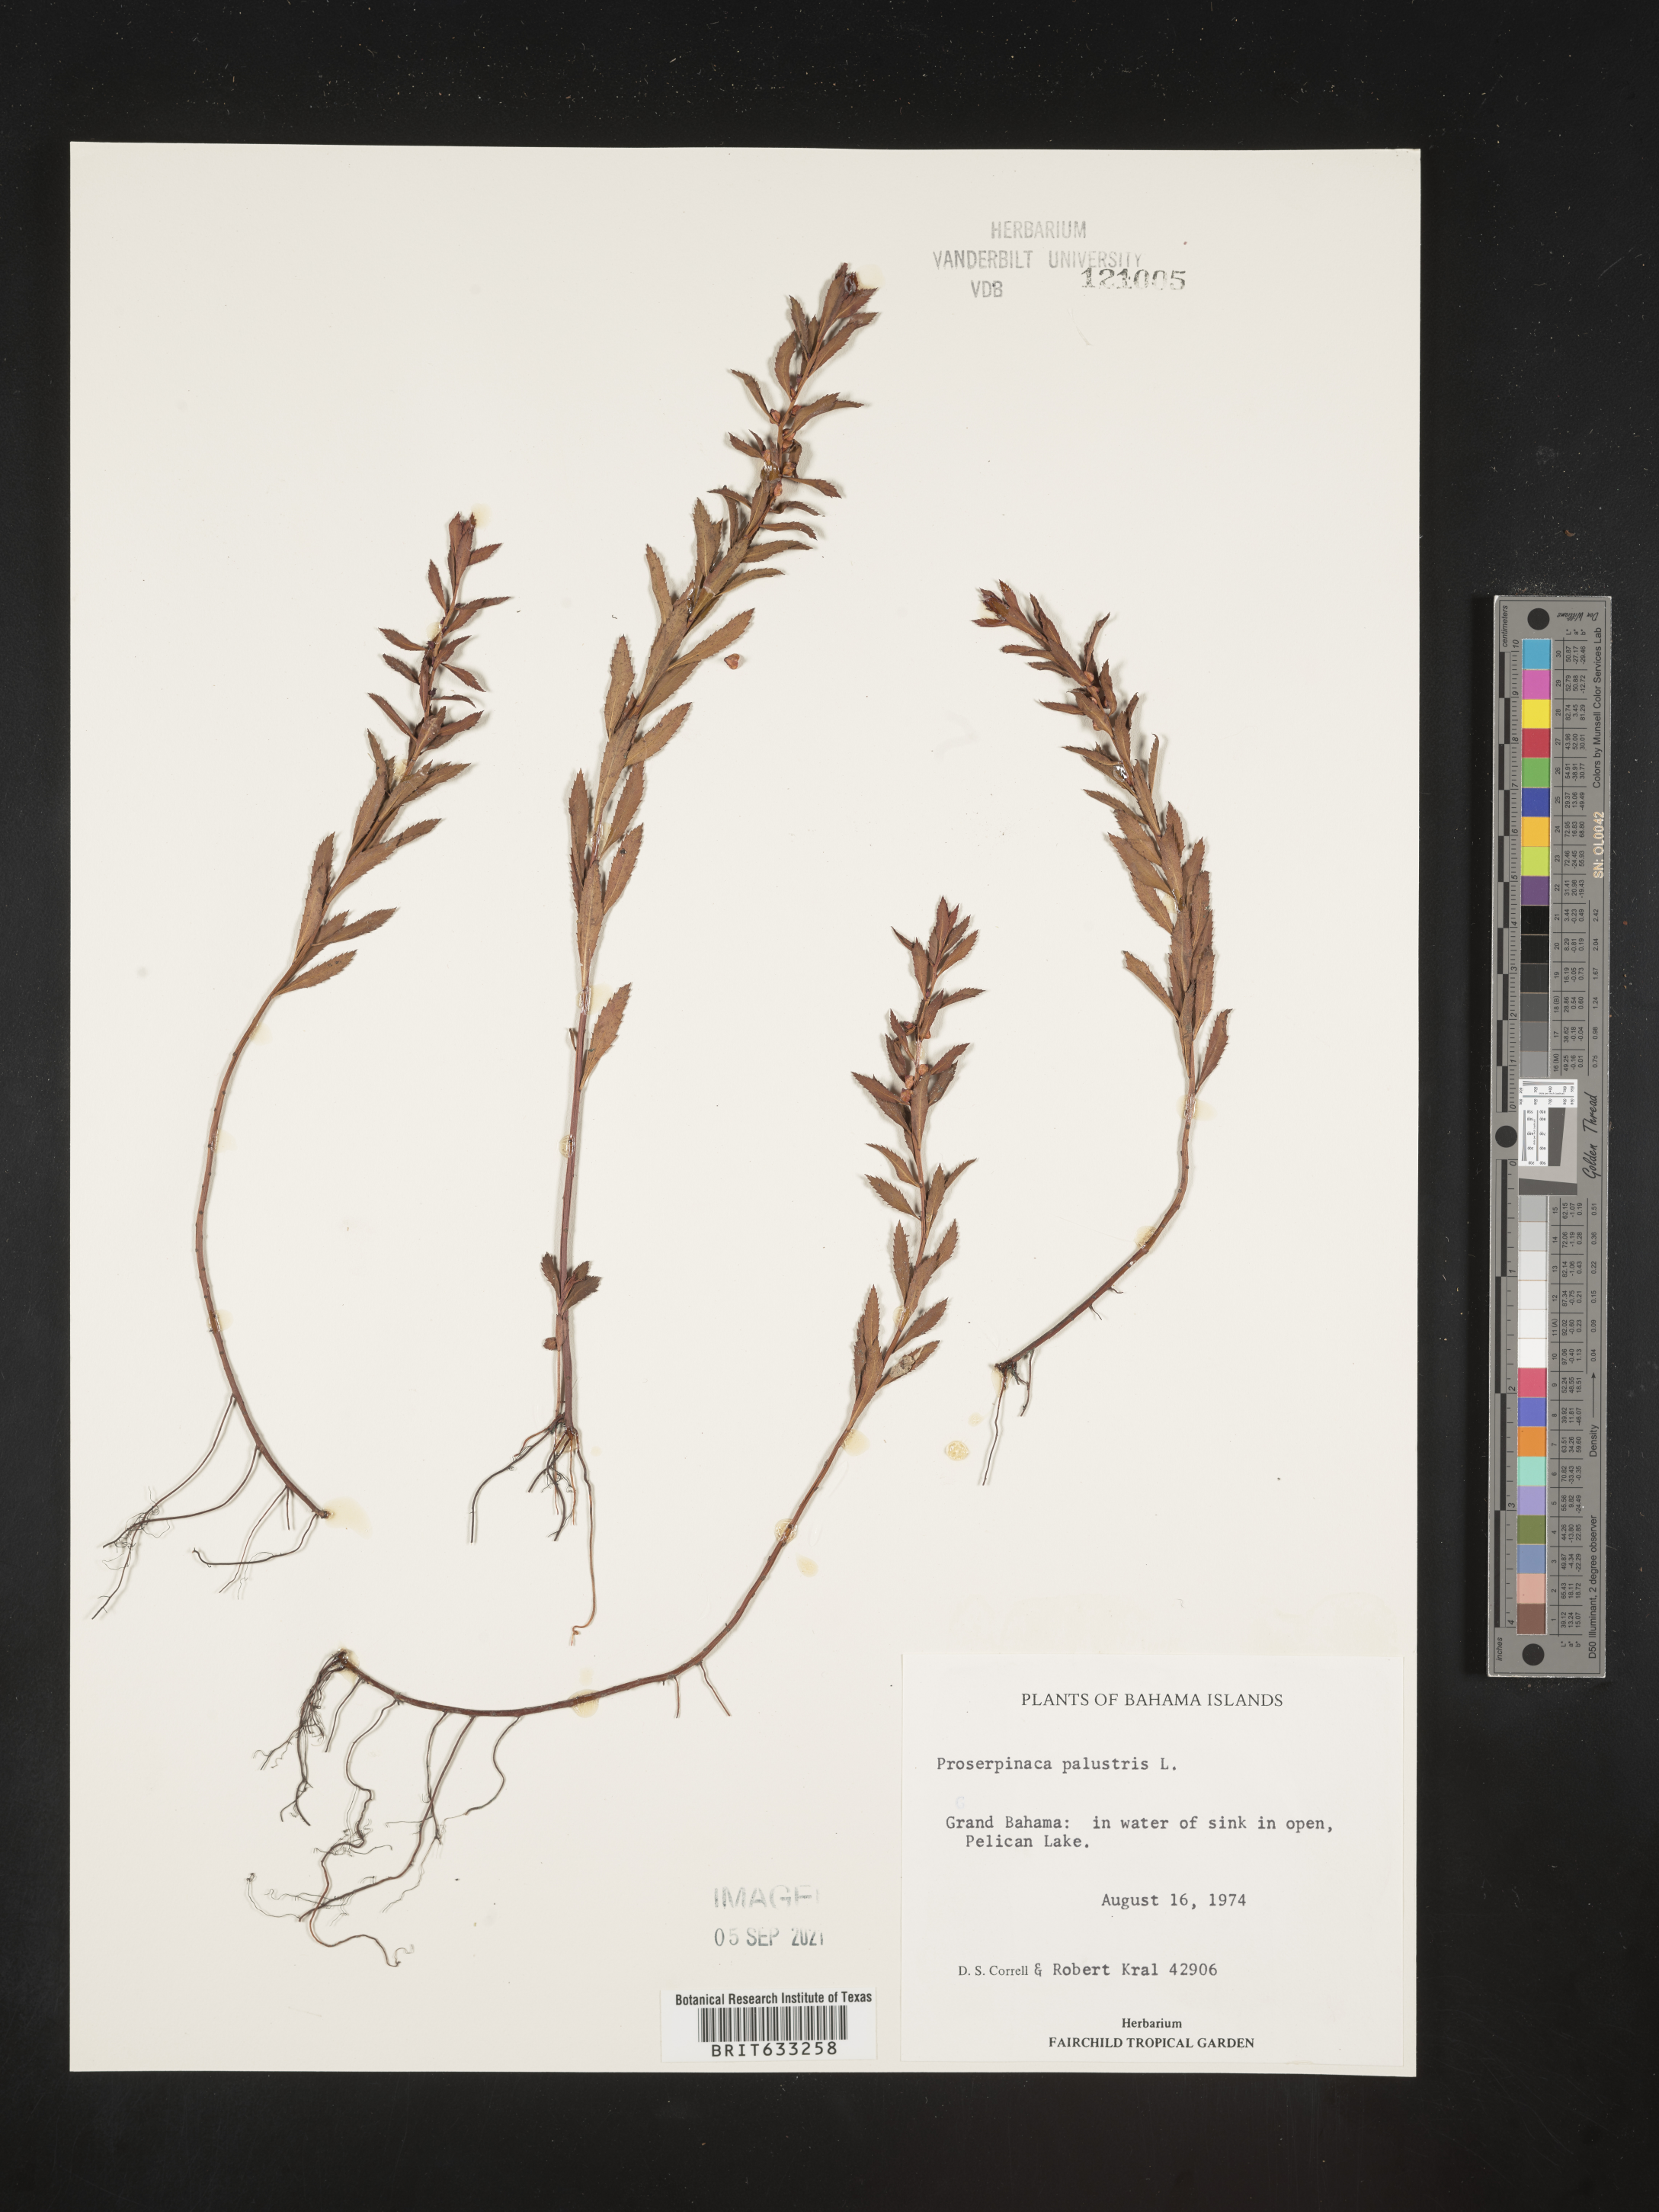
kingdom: Plantae
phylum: Tracheophyta
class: Magnoliopsida
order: Saxifragales
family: Haloragaceae
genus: Proserpinaca
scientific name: Proserpinaca
